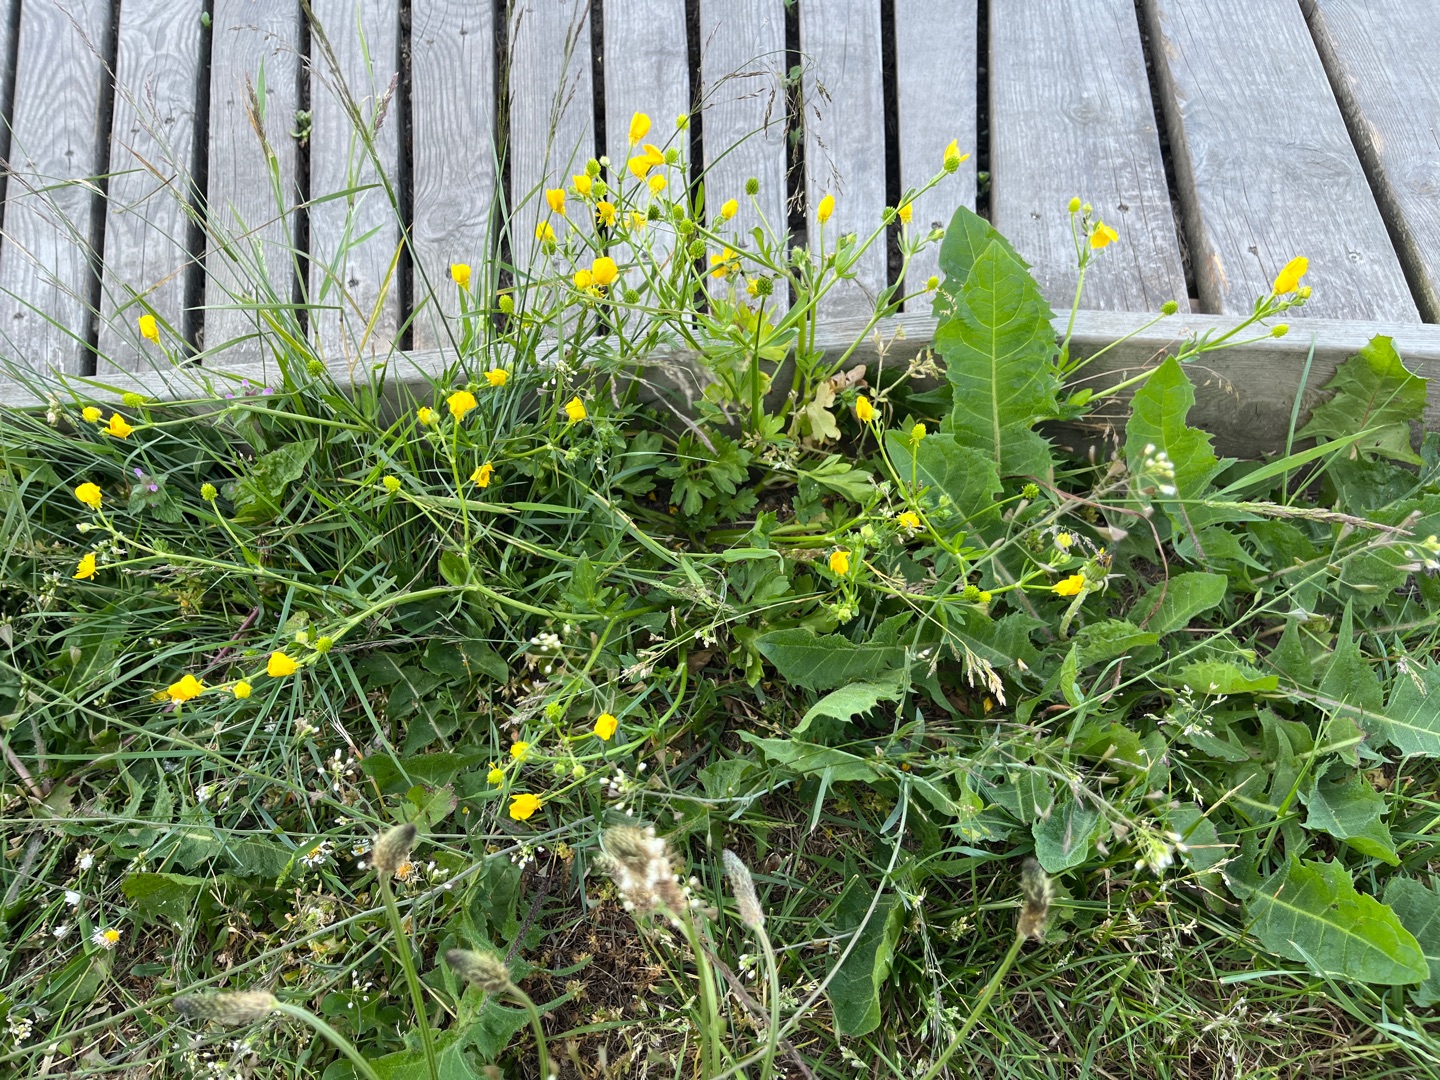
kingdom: Plantae
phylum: Tracheophyta
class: Magnoliopsida
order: Ranunculales
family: Ranunculaceae
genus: Ranunculus
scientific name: Ranunculus sardous
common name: Stivhåret ranunkel
